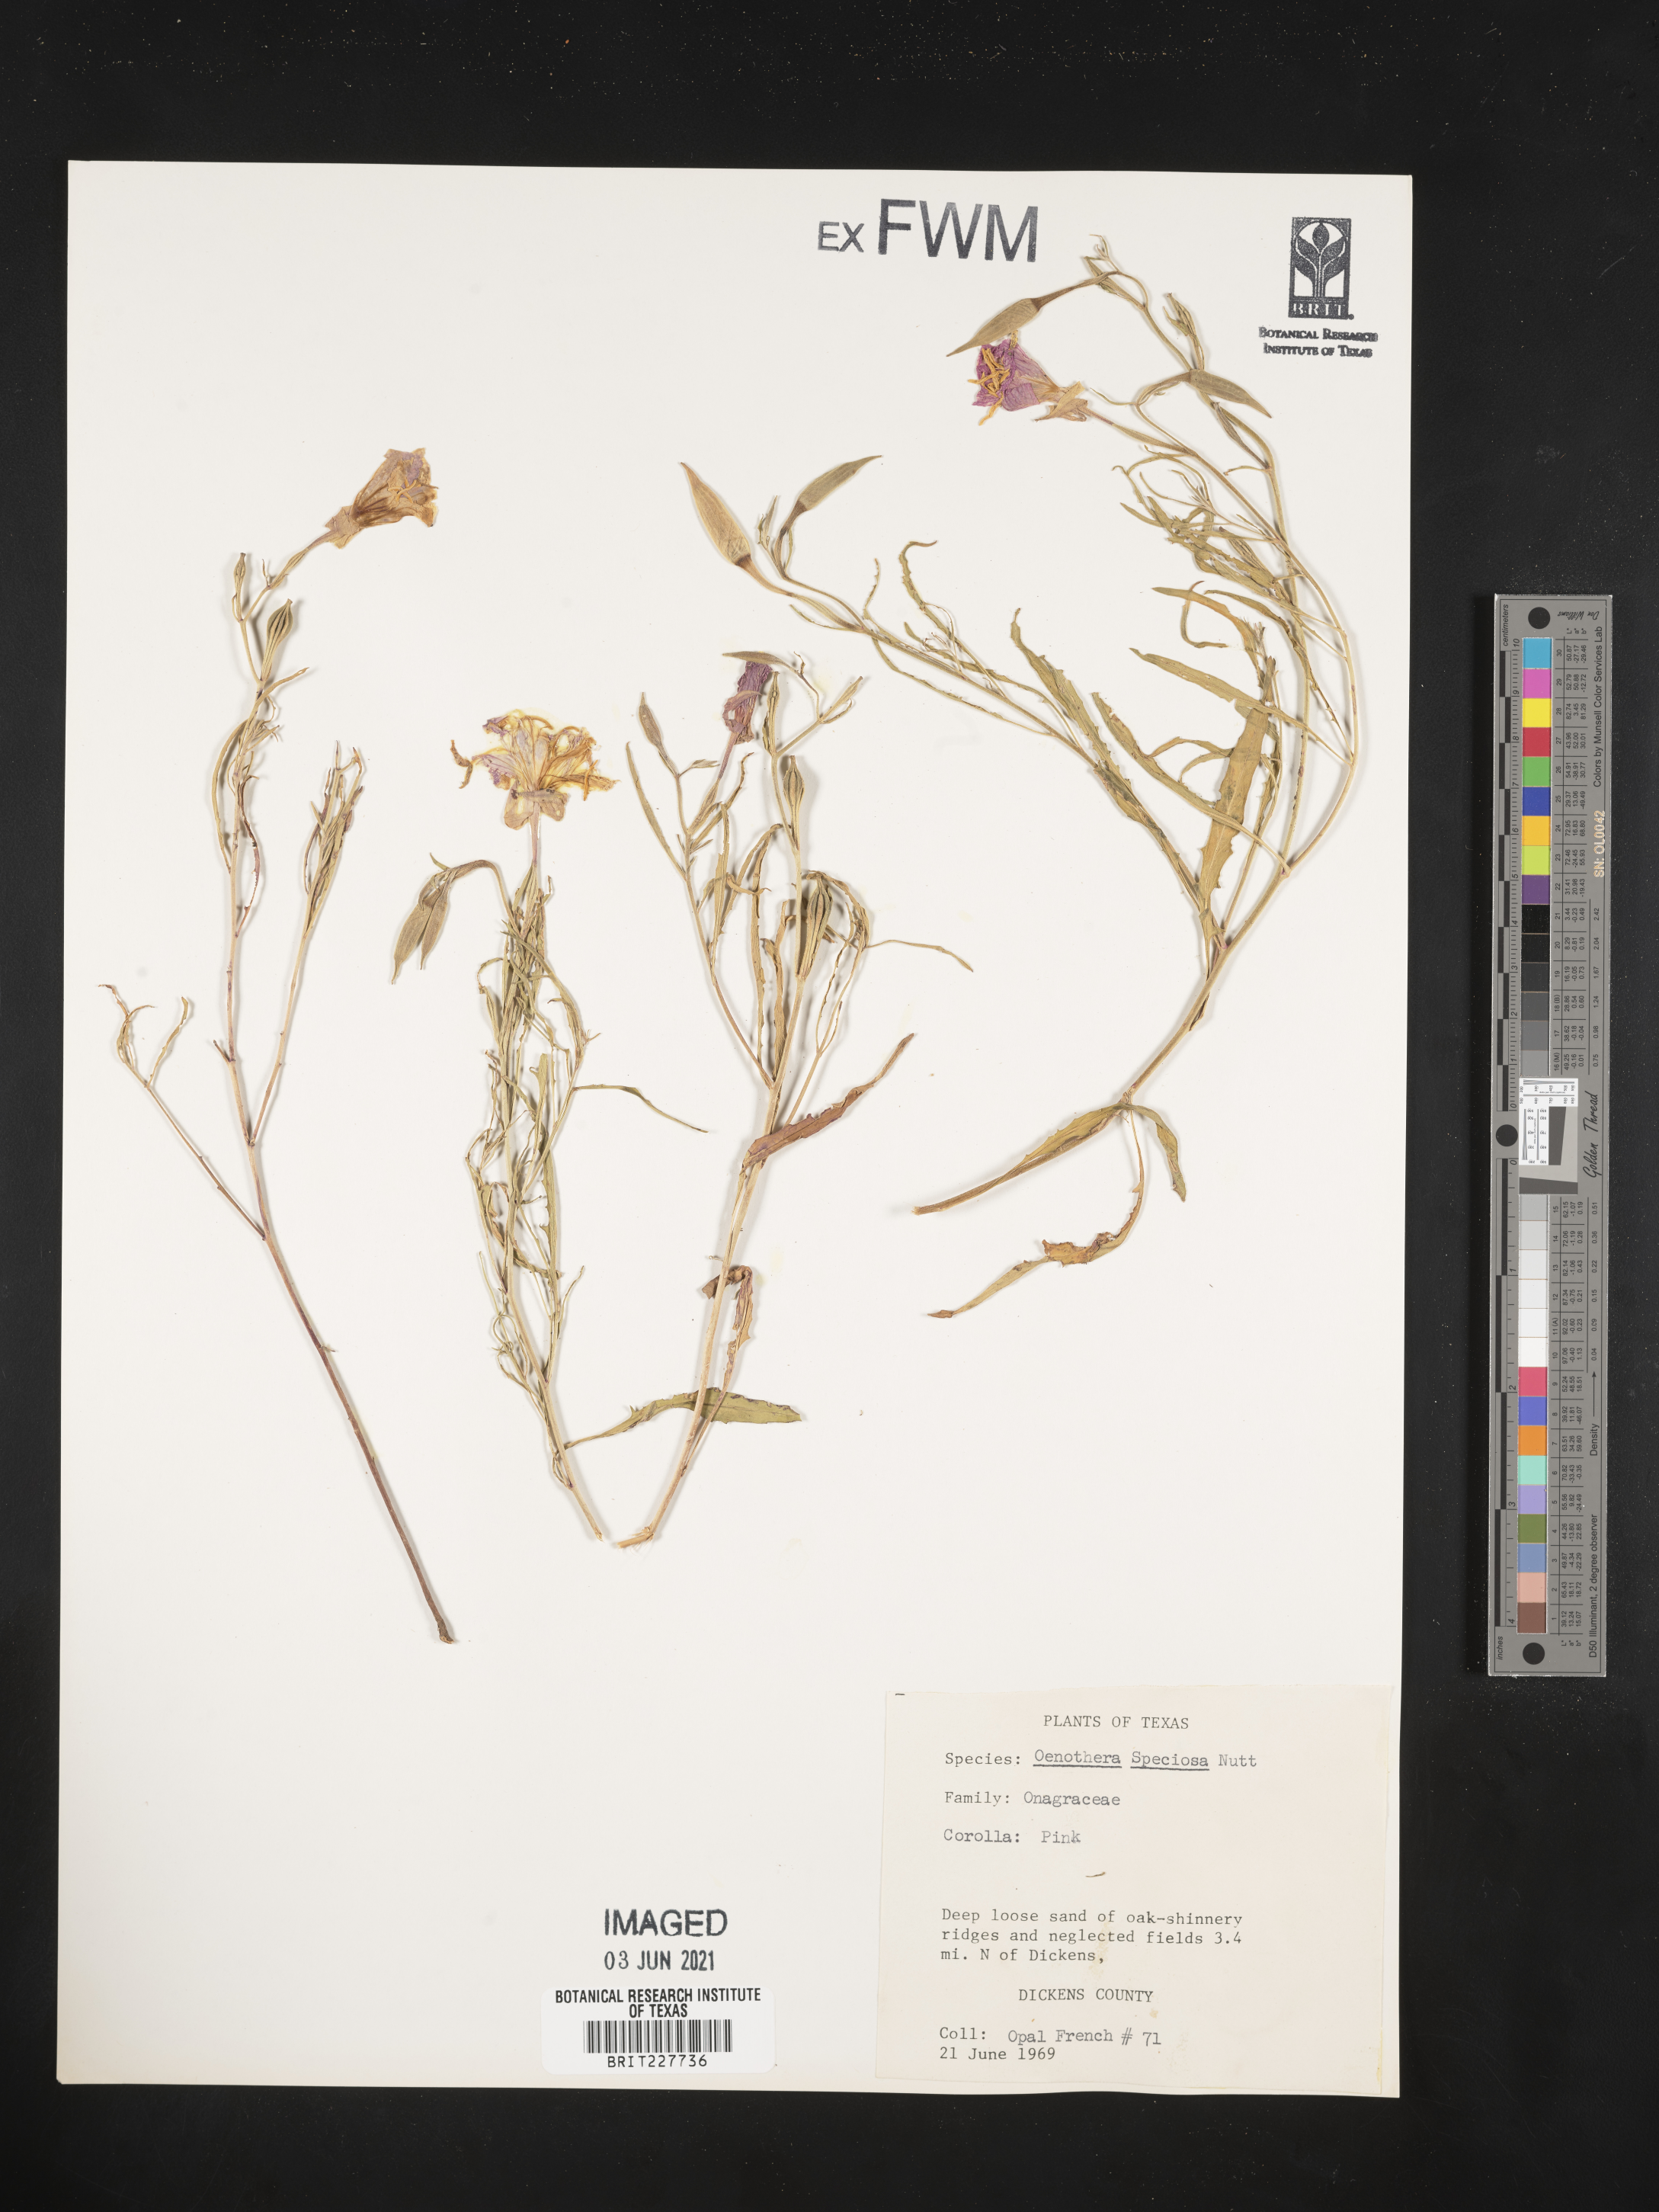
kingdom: Plantae
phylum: Tracheophyta
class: Magnoliopsida
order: Myrtales
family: Onagraceae
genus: Oenothera
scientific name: Oenothera speciosa
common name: White evening-primrose
